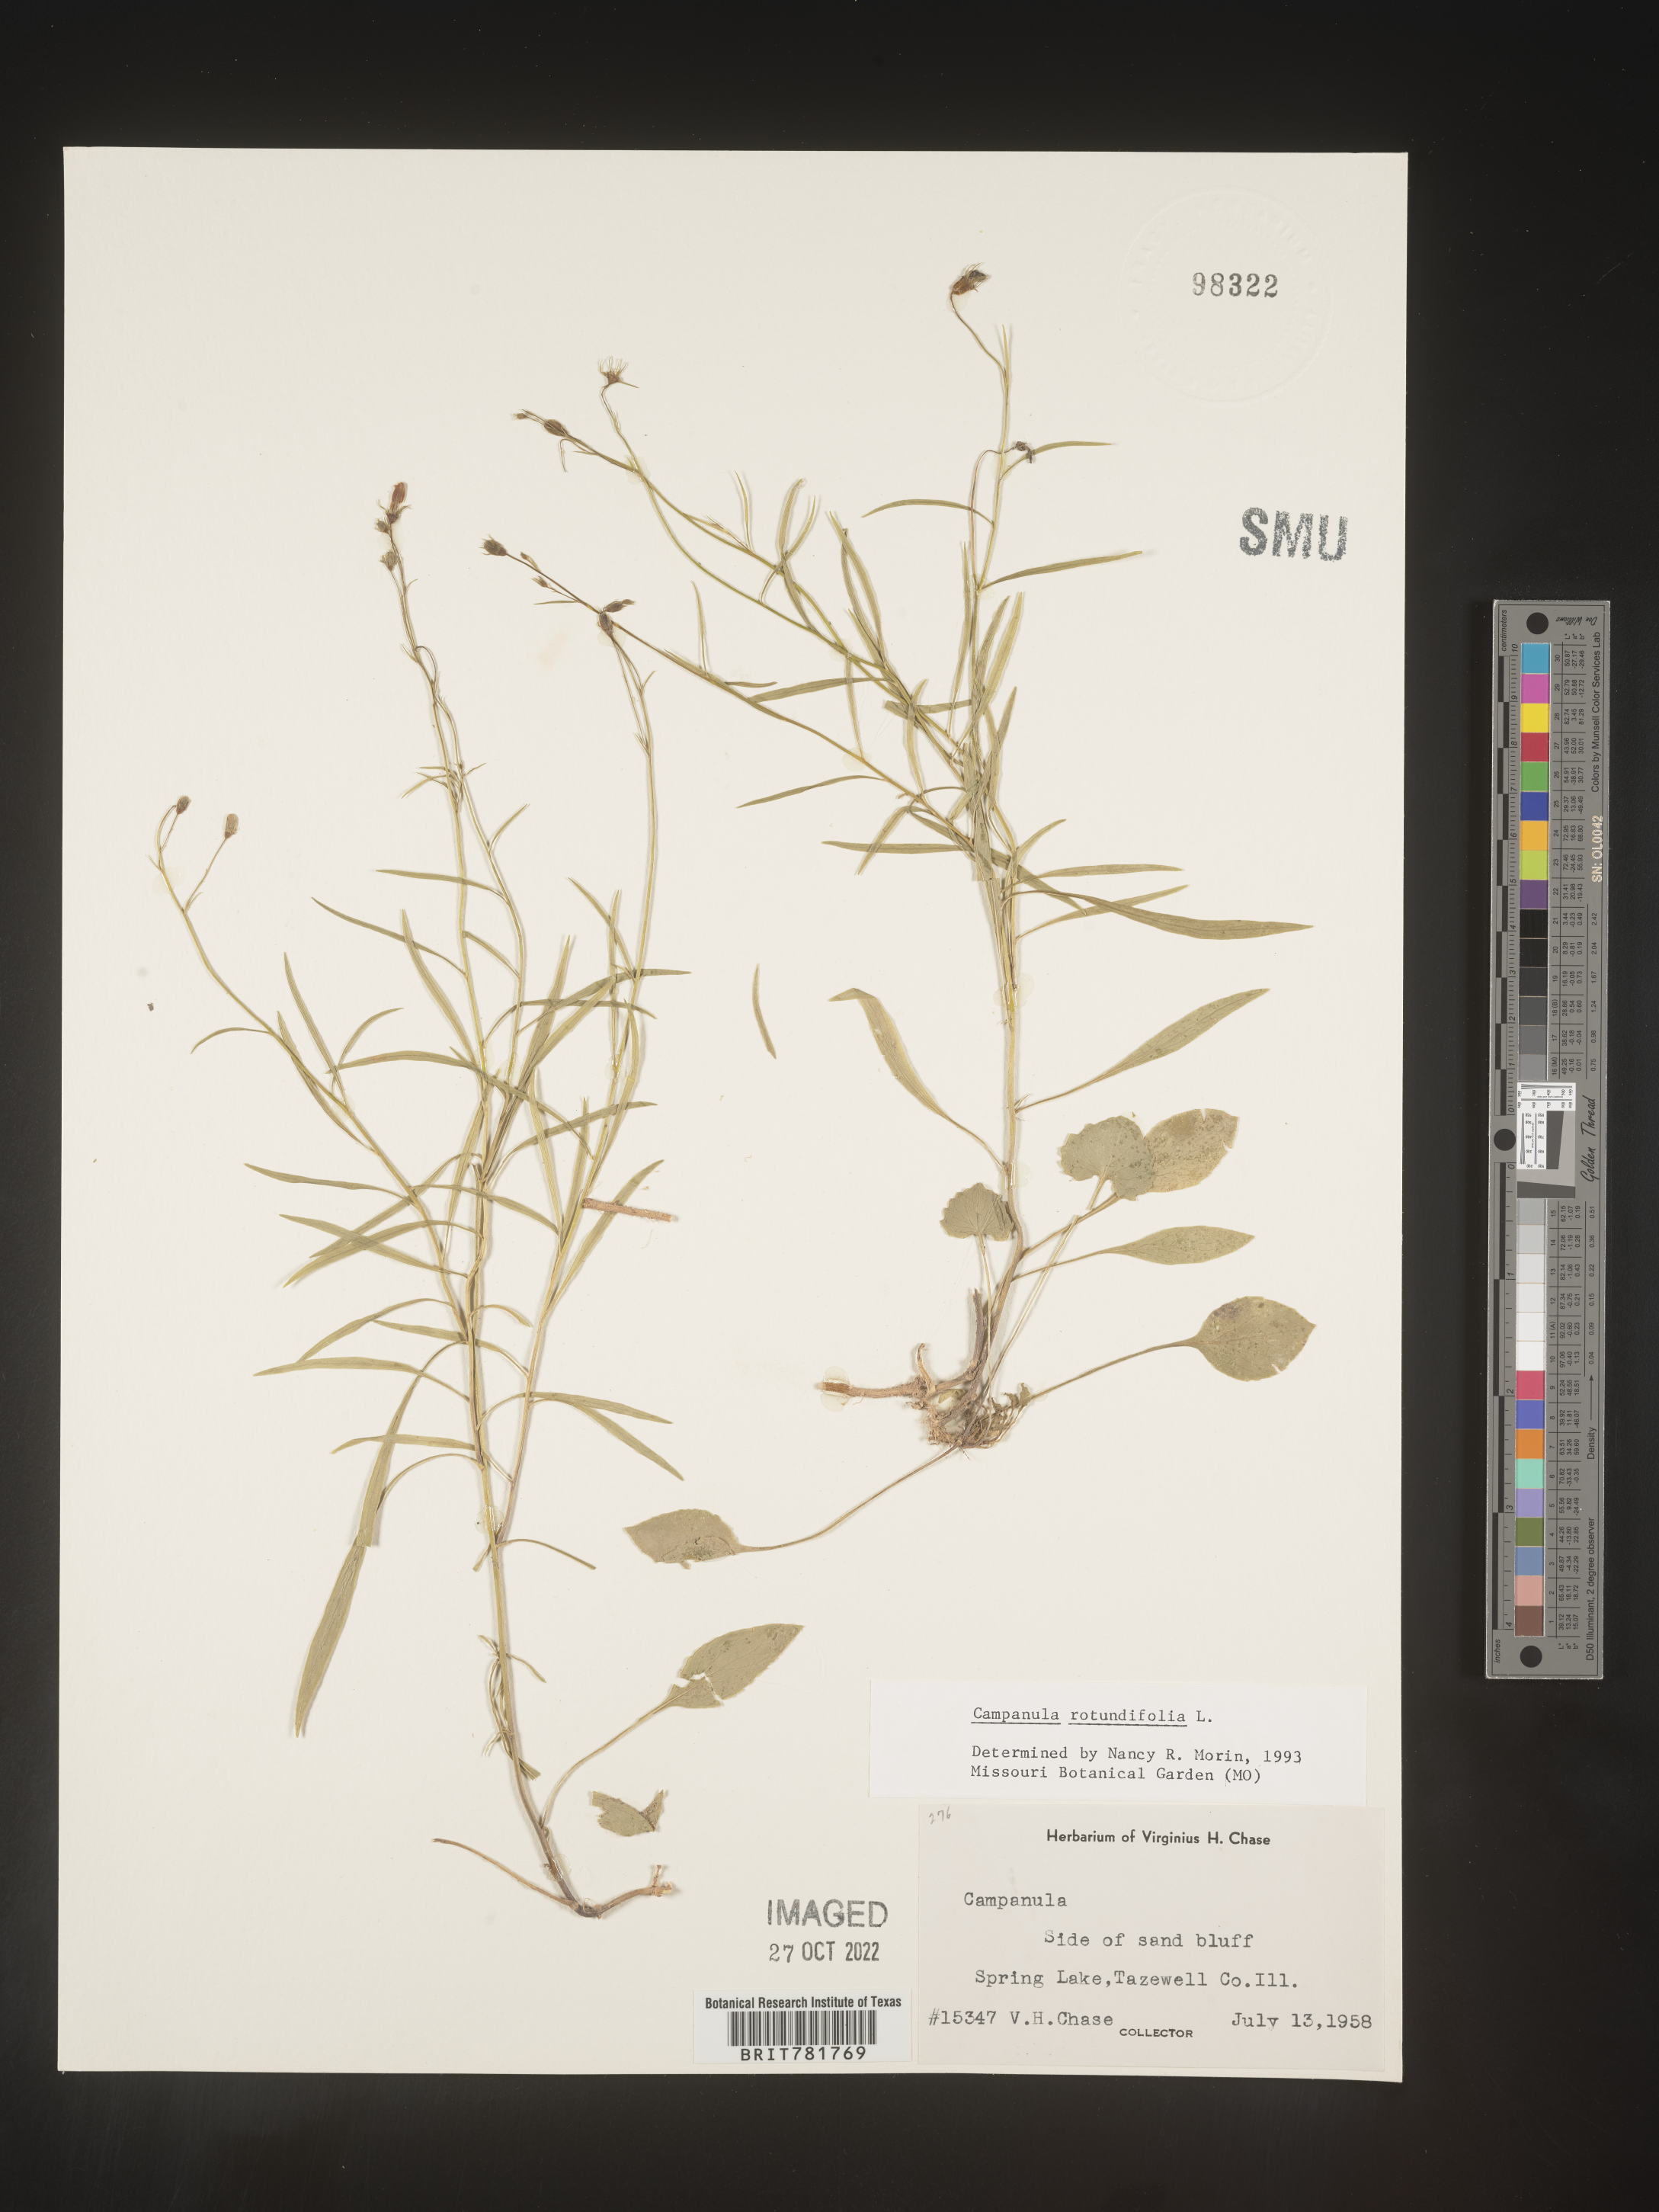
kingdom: Plantae
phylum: Tracheophyta
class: Magnoliopsida
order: Asterales
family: Campanulaceae
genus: Campanula
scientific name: Campanula rotundifolia
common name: Harebell
